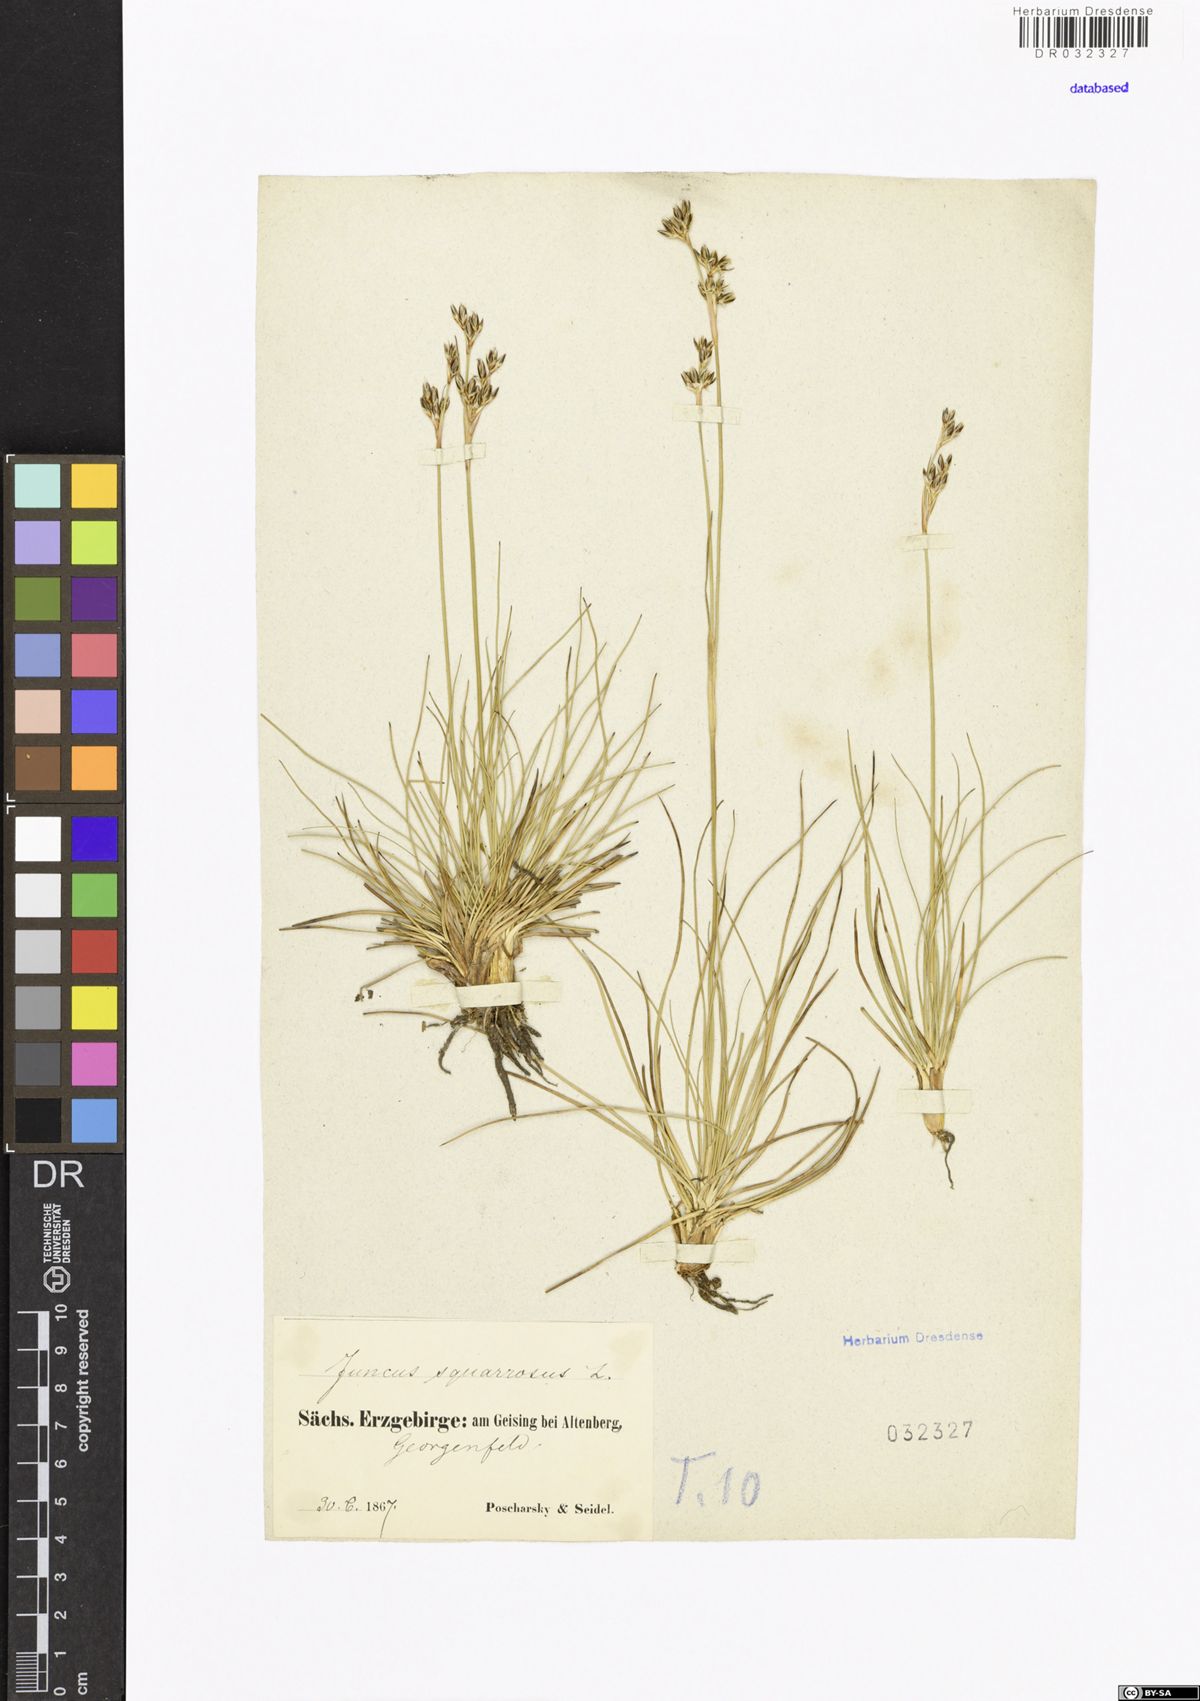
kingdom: Plantae
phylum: Tracheophyta
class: Liliopsida
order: Poales
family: Juncaceae
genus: Juncus
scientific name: Juncus squarrosus
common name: Heath rush
